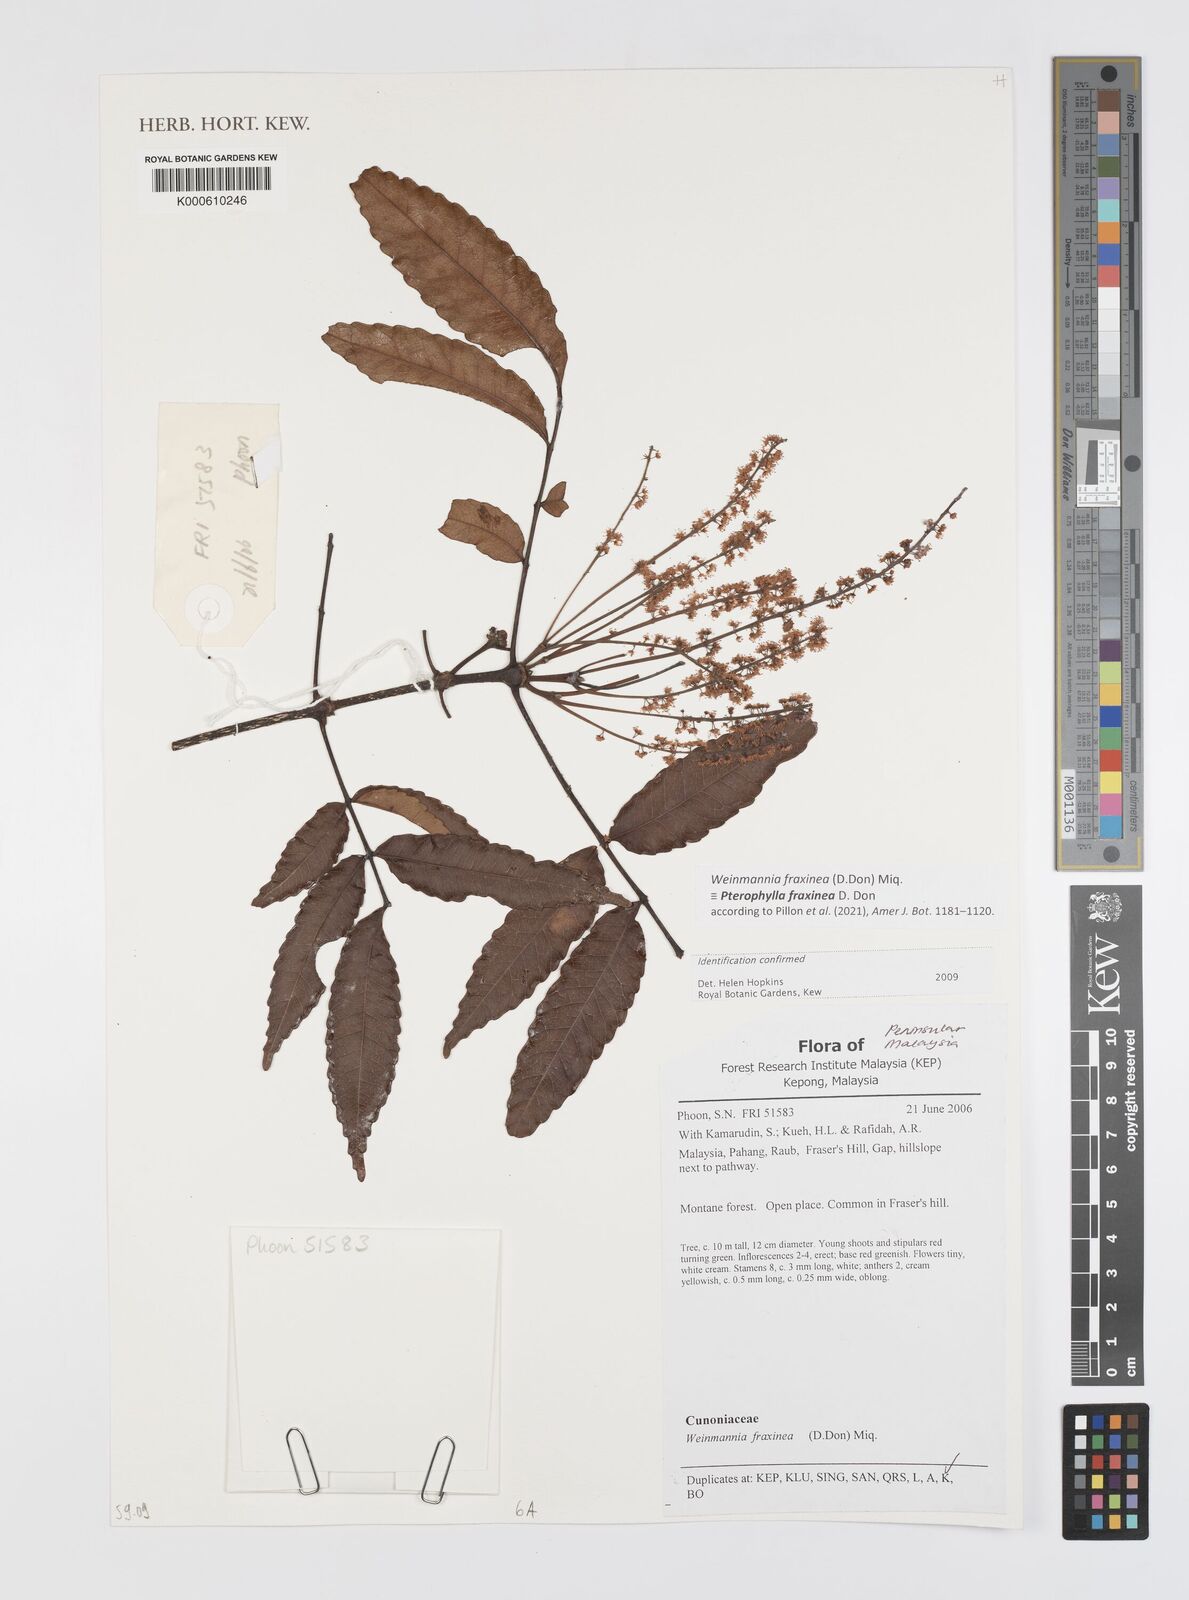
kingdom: Plantae
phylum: Tracheophyta
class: Magnoliopsida
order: Oxalidales
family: Cunoniaceae
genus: Pterophylla
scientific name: Pterophylla fraxinea
